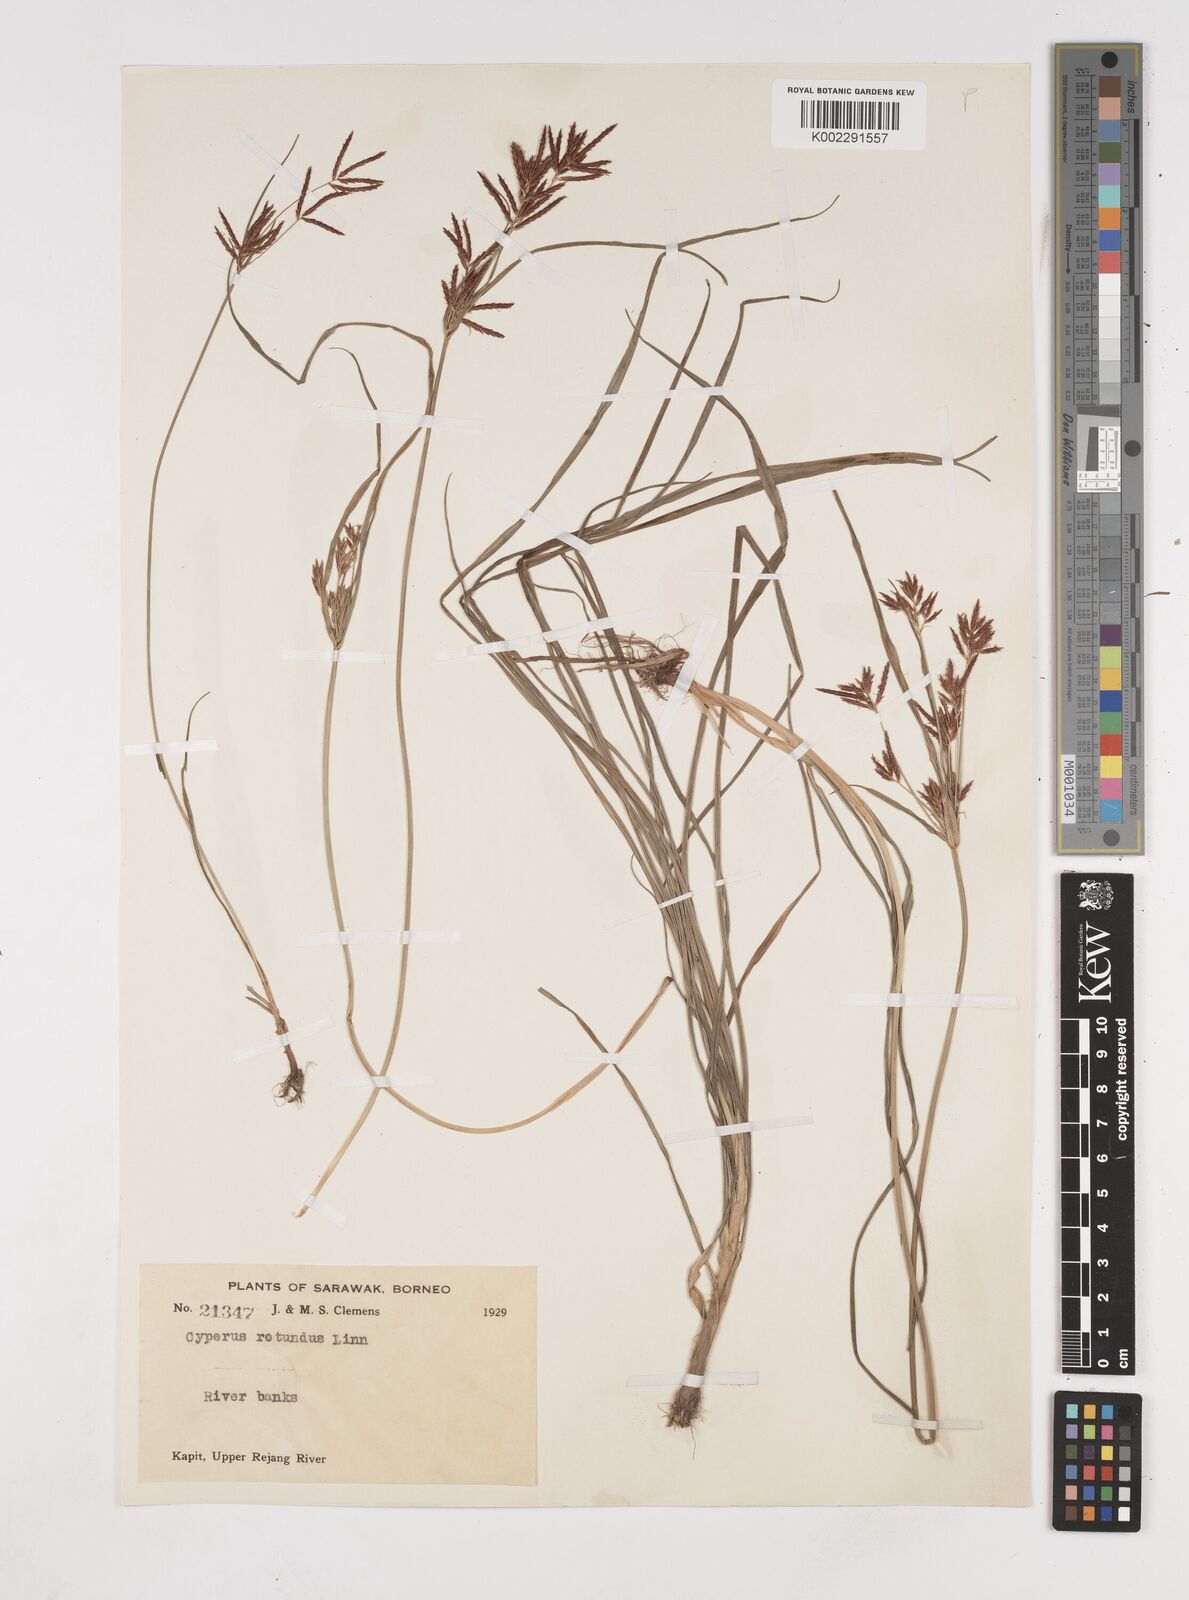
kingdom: Plantae
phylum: Tracheophyta
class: Liliopsida
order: Poales
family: Cyperaceae
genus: Cyperus
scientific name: Cyperus rotundus
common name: Nutgrass
